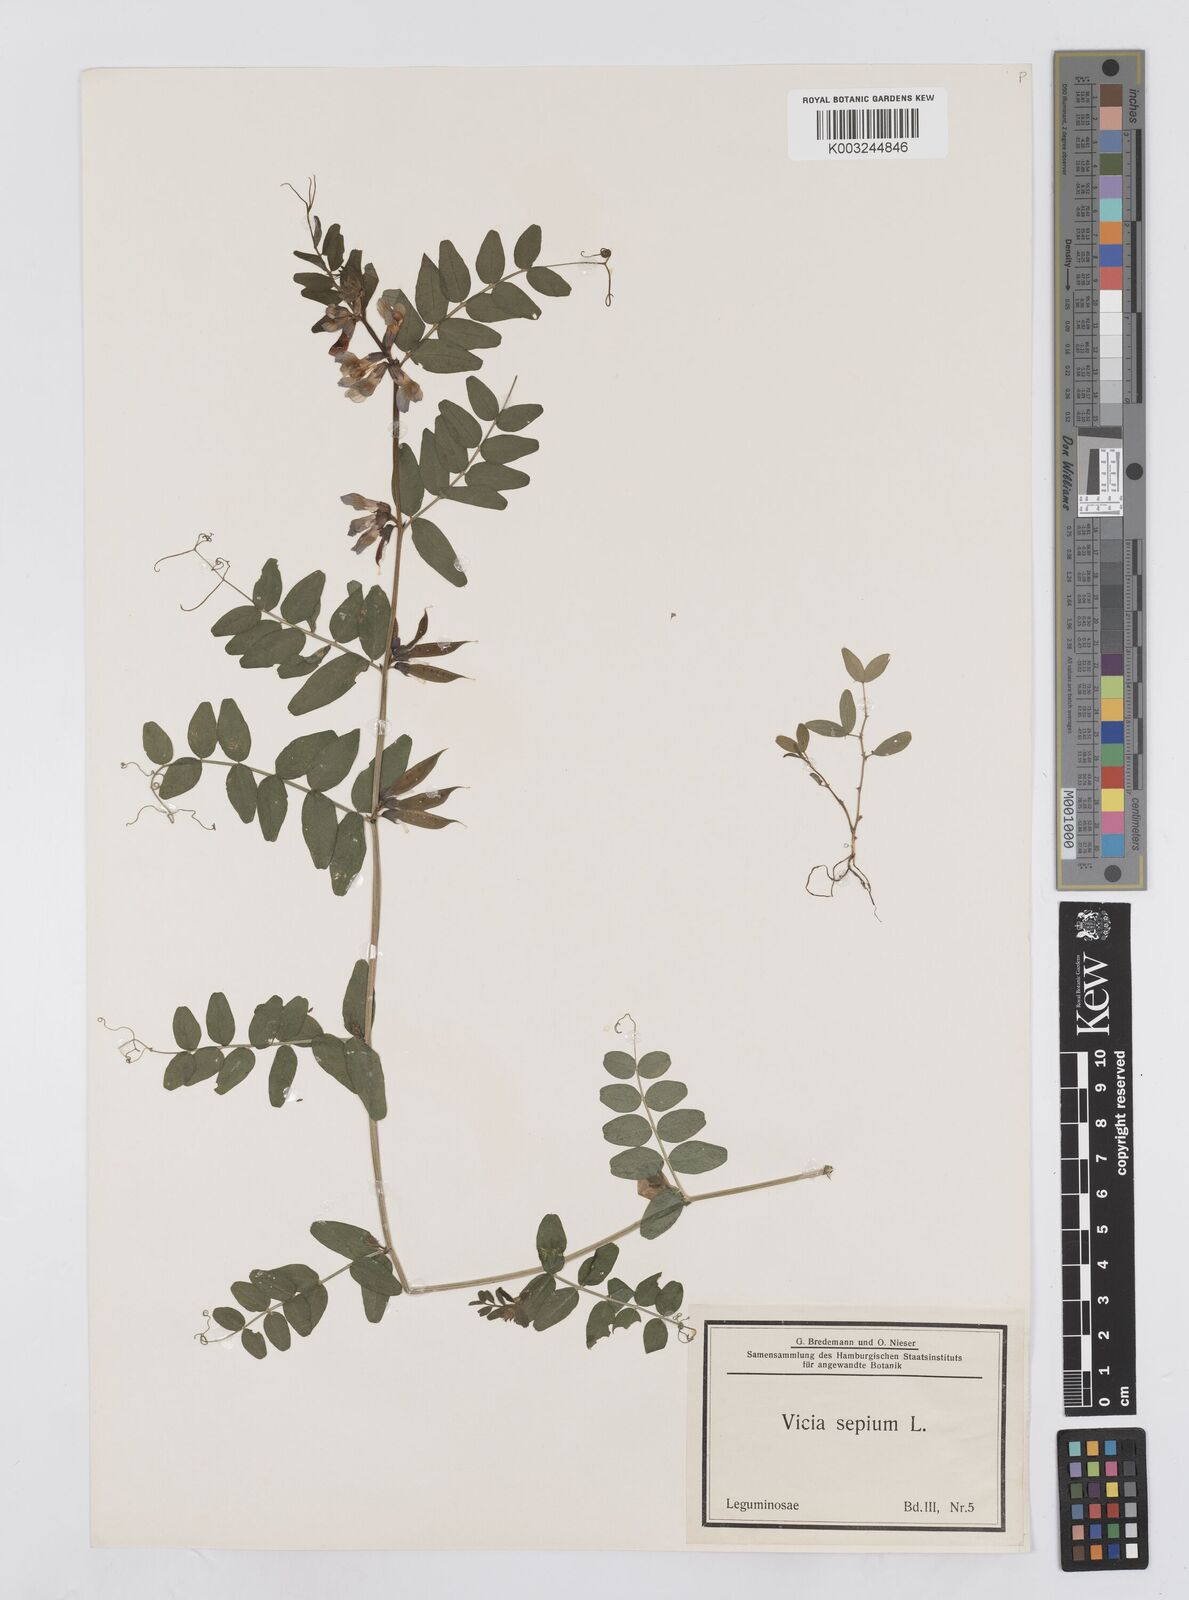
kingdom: Plantae
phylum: Tracheophyta
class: Magnoliopsida
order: Fabales
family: Fabaceae
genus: Vicia
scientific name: Vicia sepium
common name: Bush vetch
